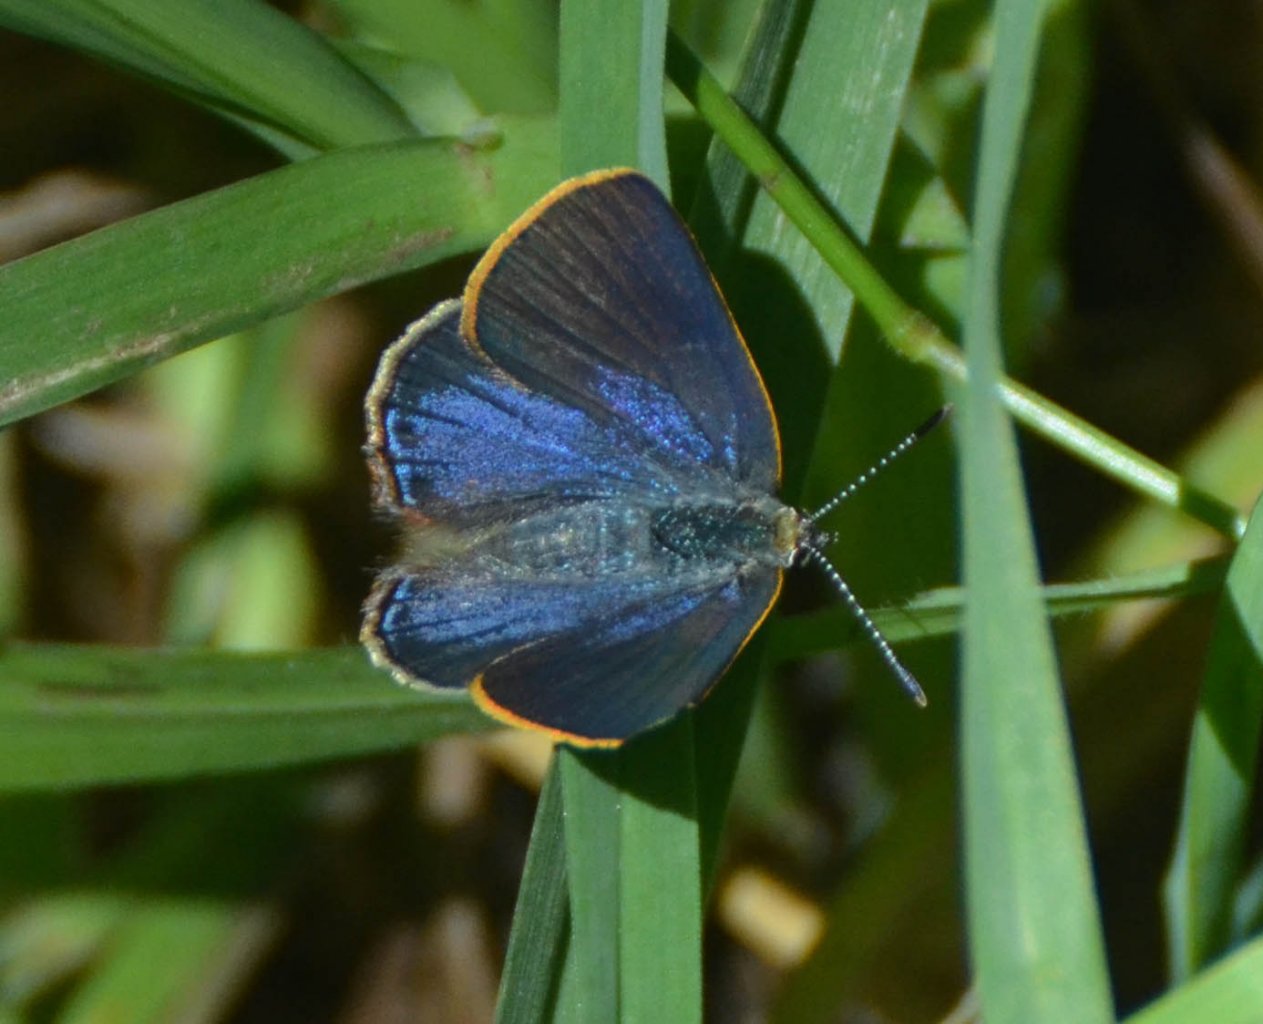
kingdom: Animalia
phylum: Arthropoda
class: Insecta
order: Lepidoptera
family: Lycaenidae
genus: Erora
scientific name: Erora quaderna
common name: Arizona Hairstreak
